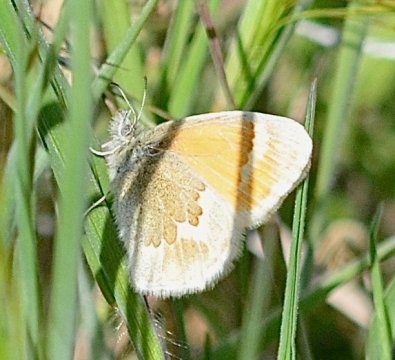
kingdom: Animalia
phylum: Arthropoda
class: Insecta
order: Lepidoptera
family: Nymphalidae
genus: Coenonympha
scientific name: Coenonympha tullia
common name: Large Heath
